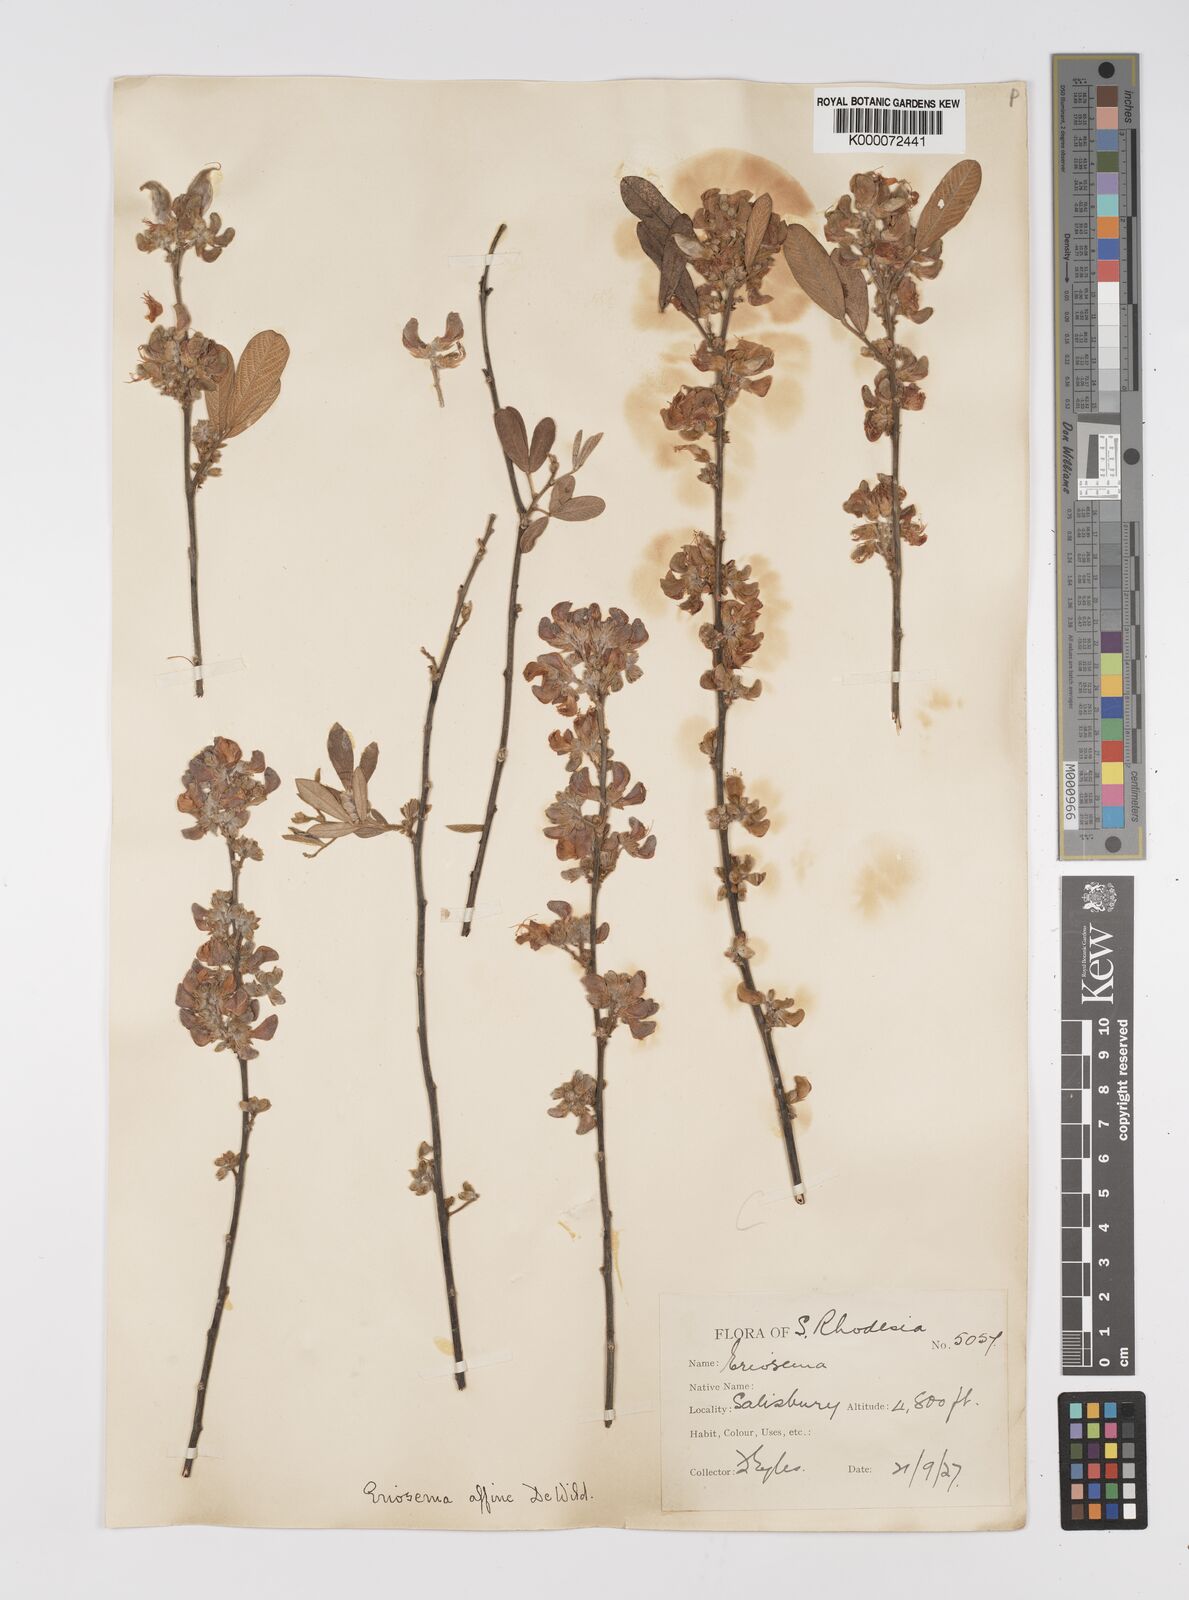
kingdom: Plantae
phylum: Tracheophyta
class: Magnoliopsida
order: Fabales
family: Fabaceae
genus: Eriosema
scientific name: Eriosema affine
